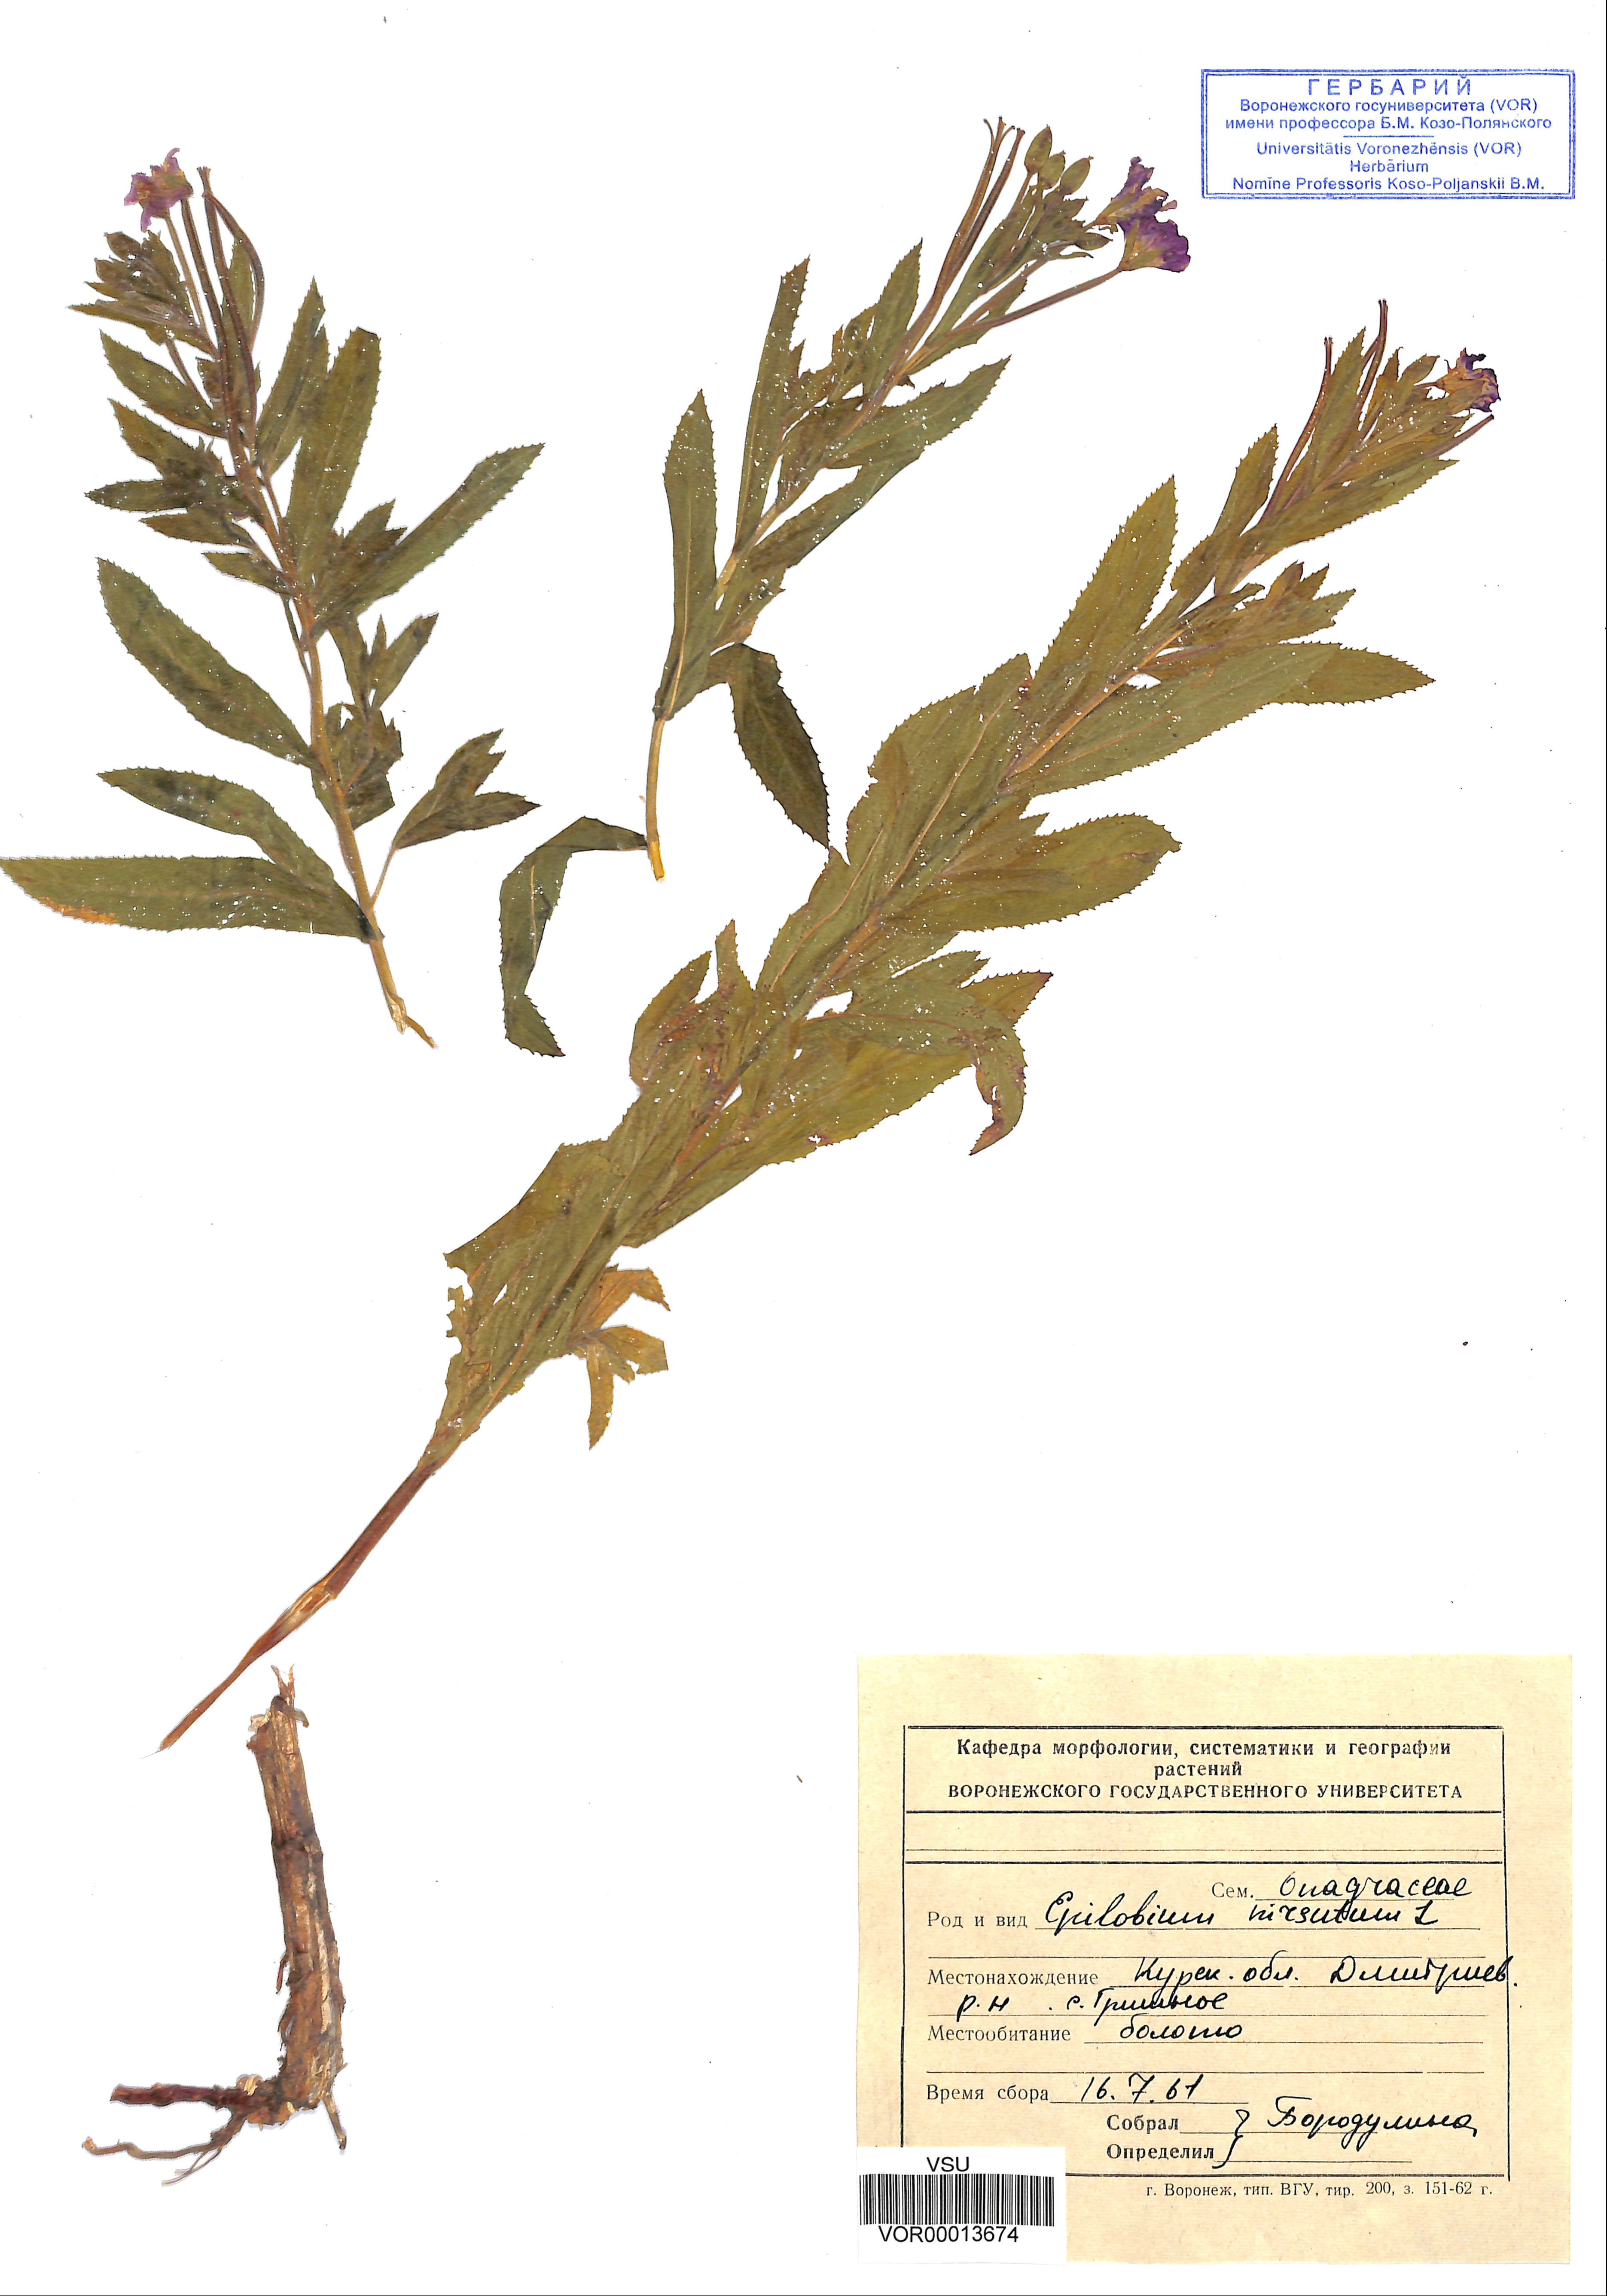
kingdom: Plantae
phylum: Tracheophyta
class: Magnoliopsida
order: Myrtales
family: Onagraceae
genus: Epilobium
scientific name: Epilobium hirsutum
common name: Great willowherb
